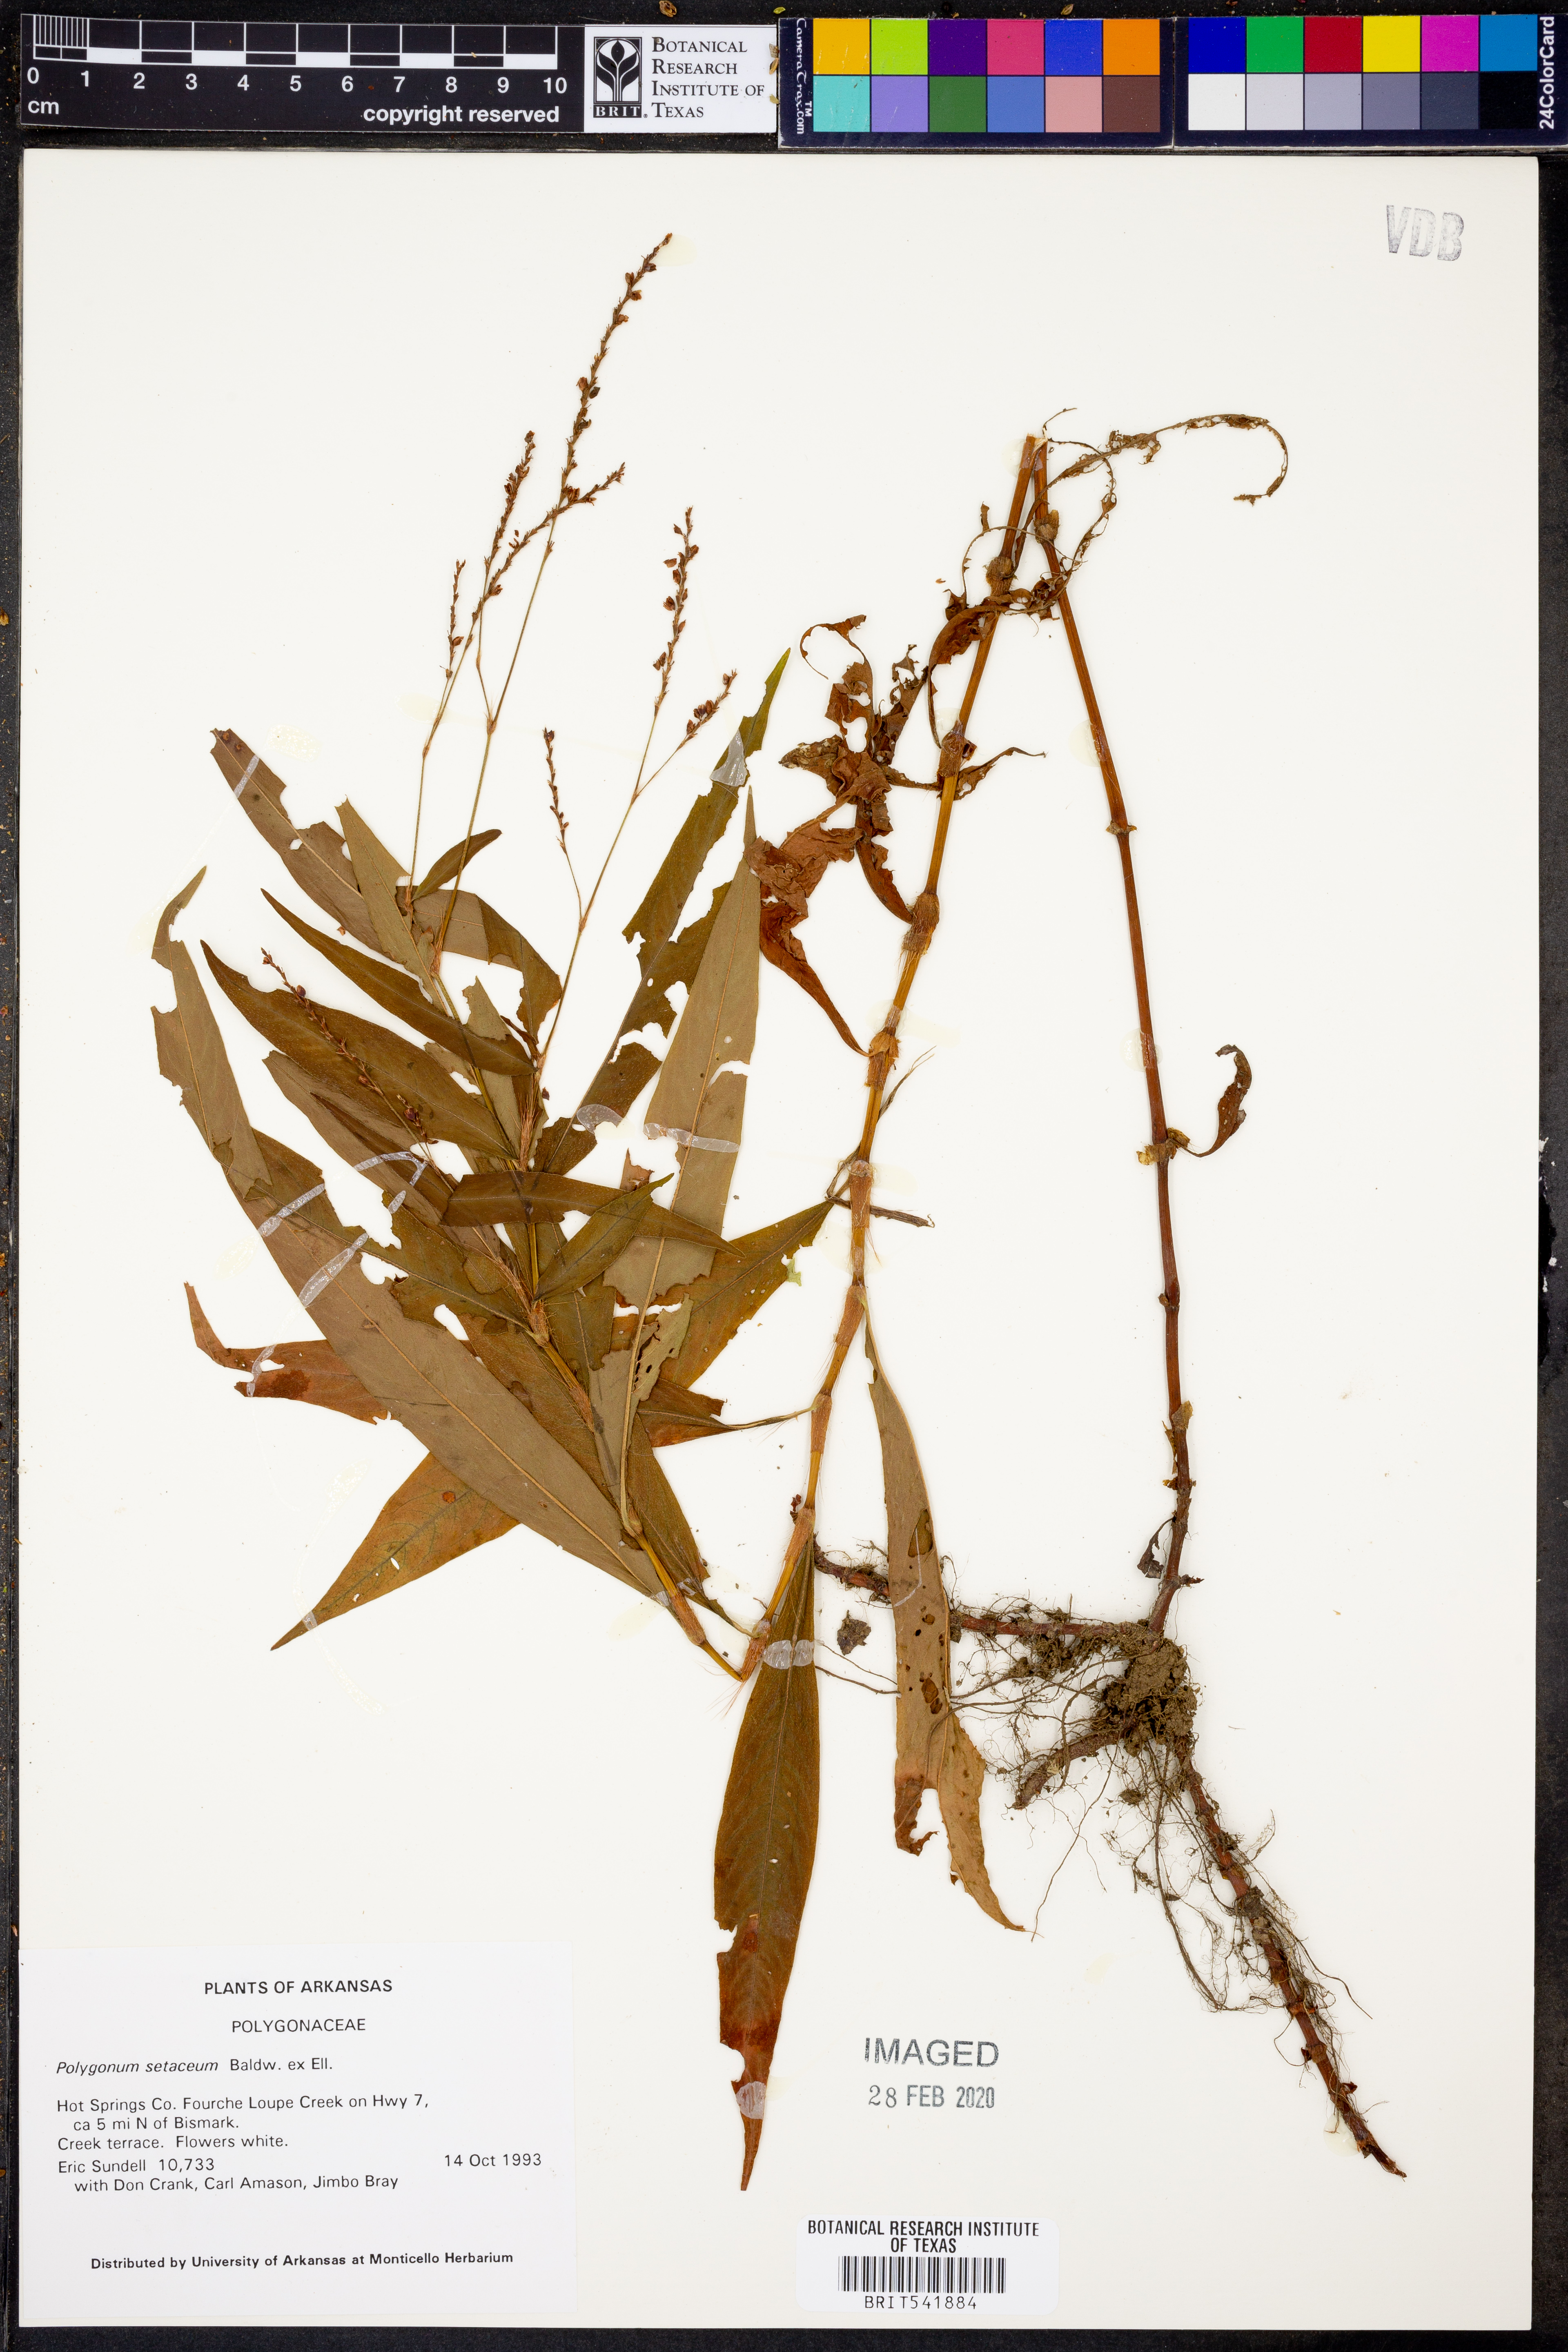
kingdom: Plantae
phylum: Tracheophyta
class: Magnoliopsida
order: Caryophyllales
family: Polygonaceae
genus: Persicaria
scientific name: Persicaria setacea
